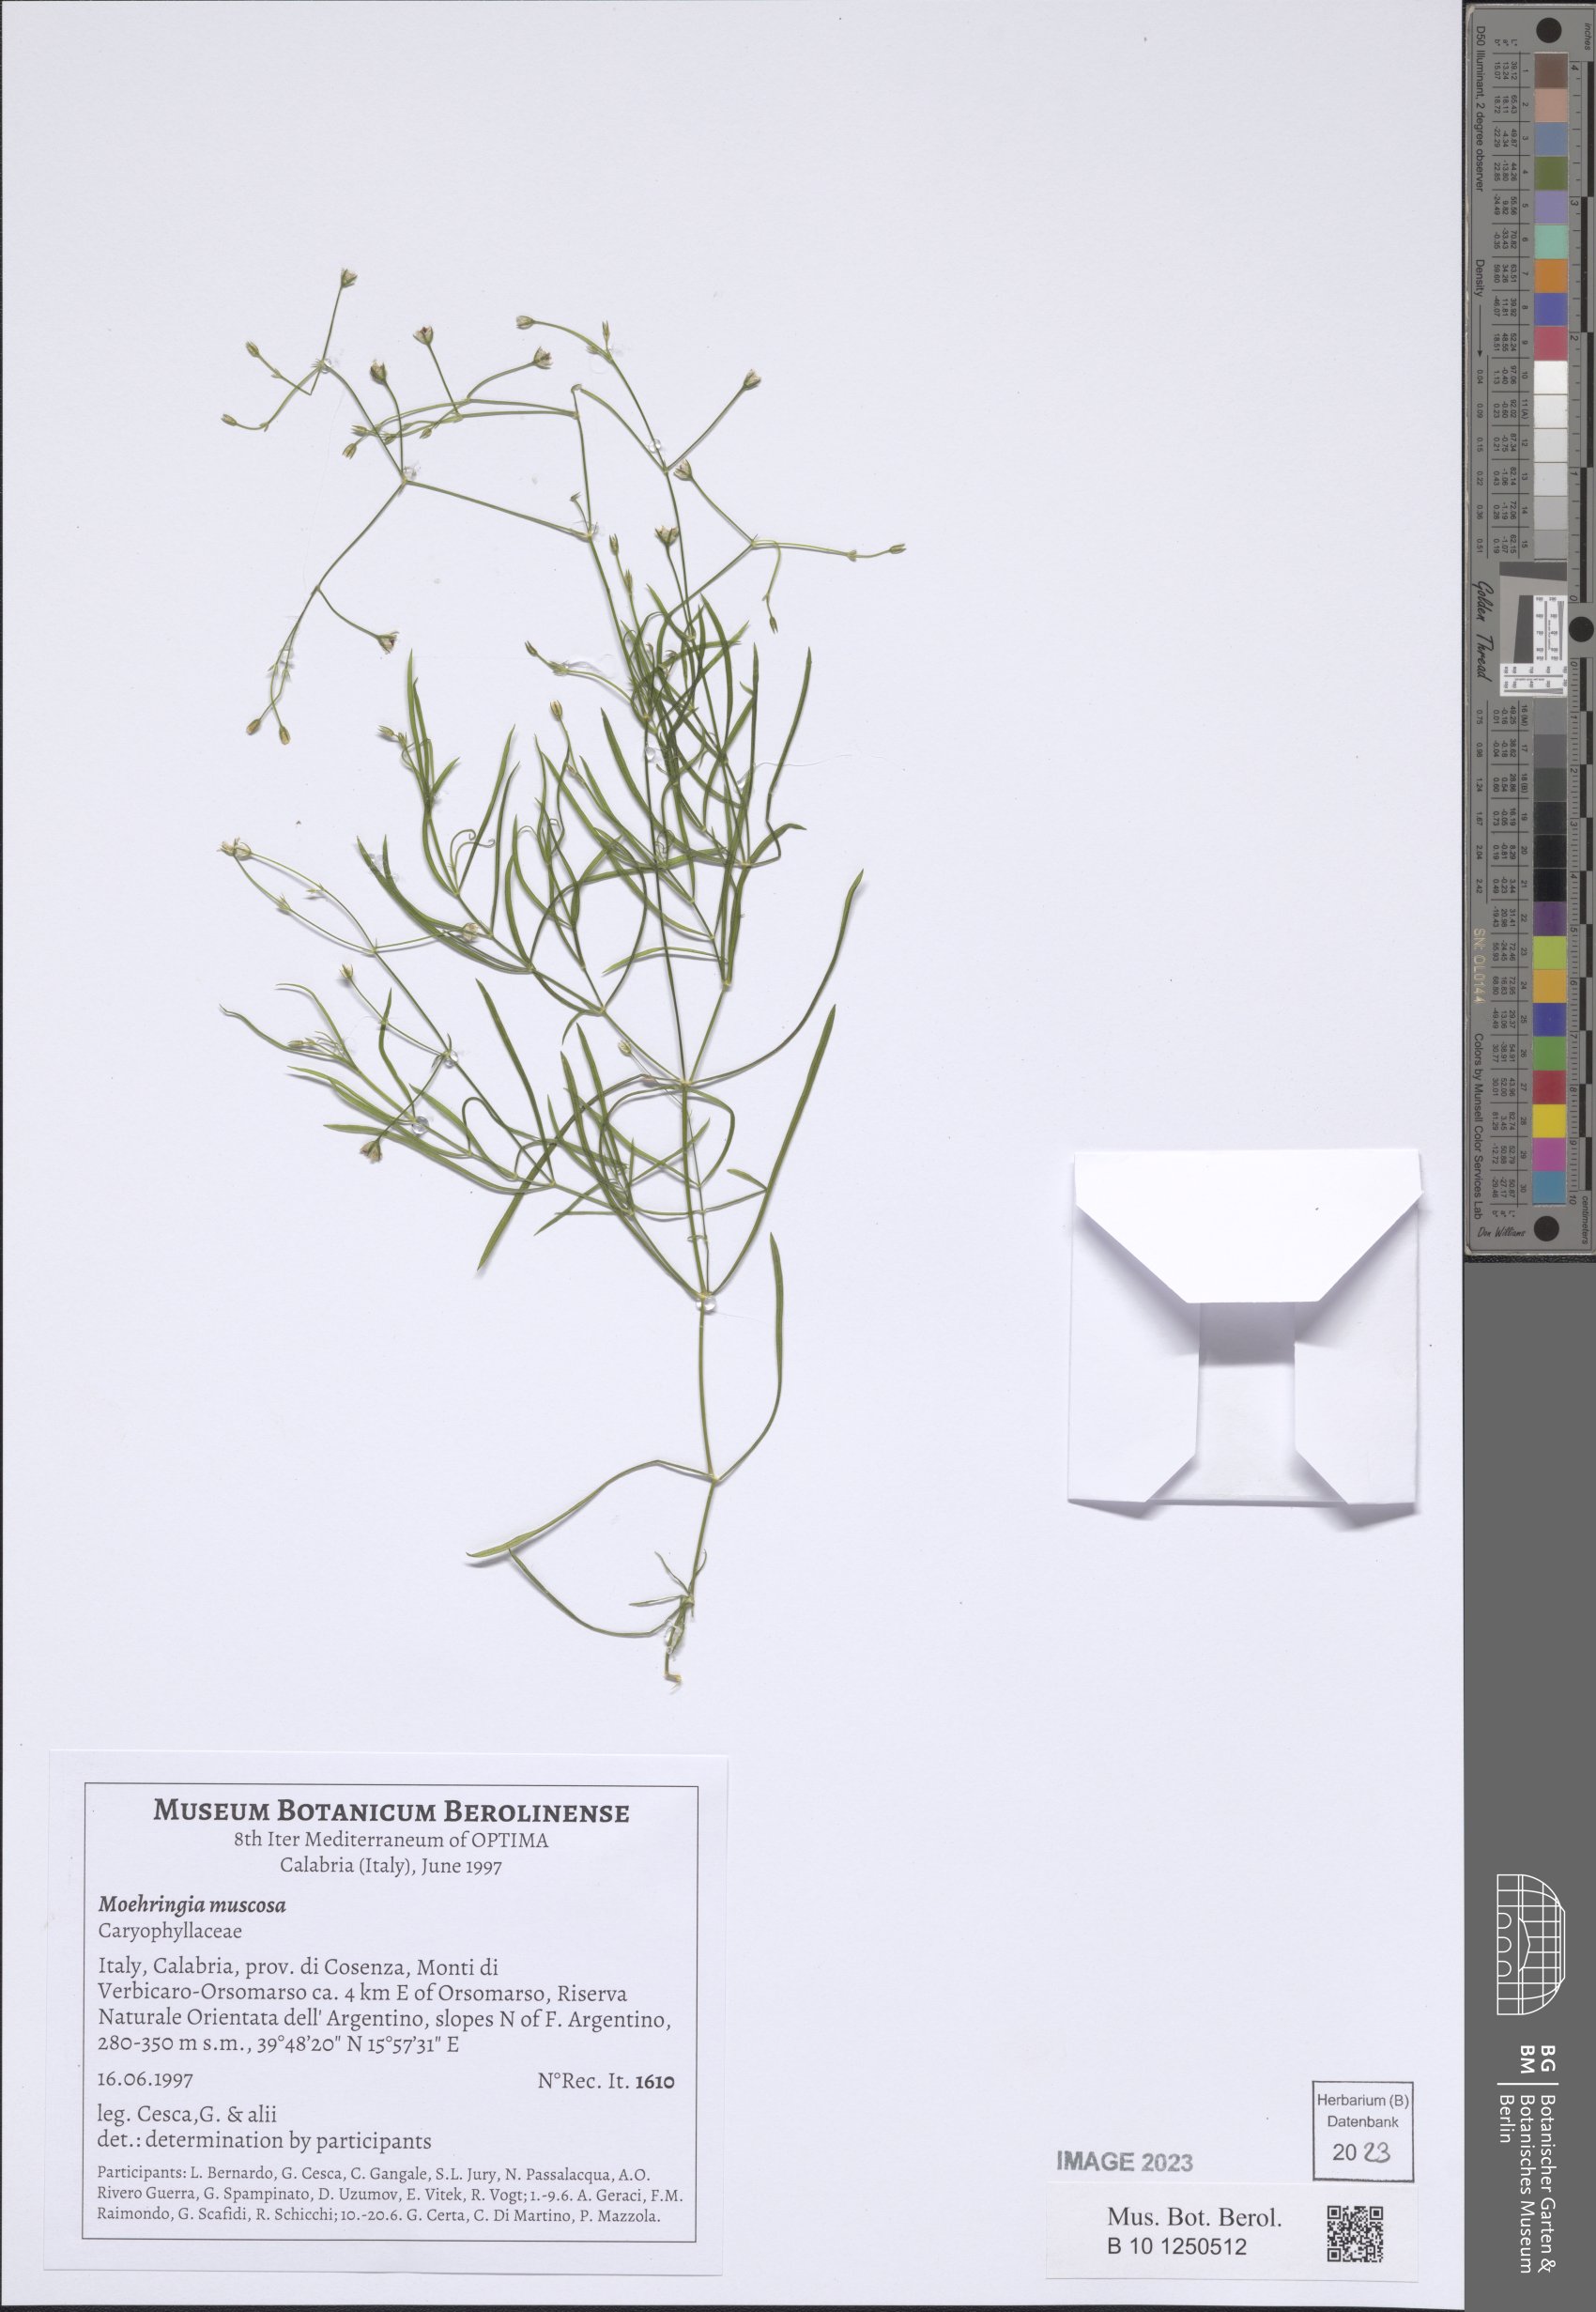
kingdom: Plantae
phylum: Tracheophyta
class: Magnoliopsida
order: Caryophyllales
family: Caryophyllaceae
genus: Moehringia
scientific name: Moehringia muscosa
